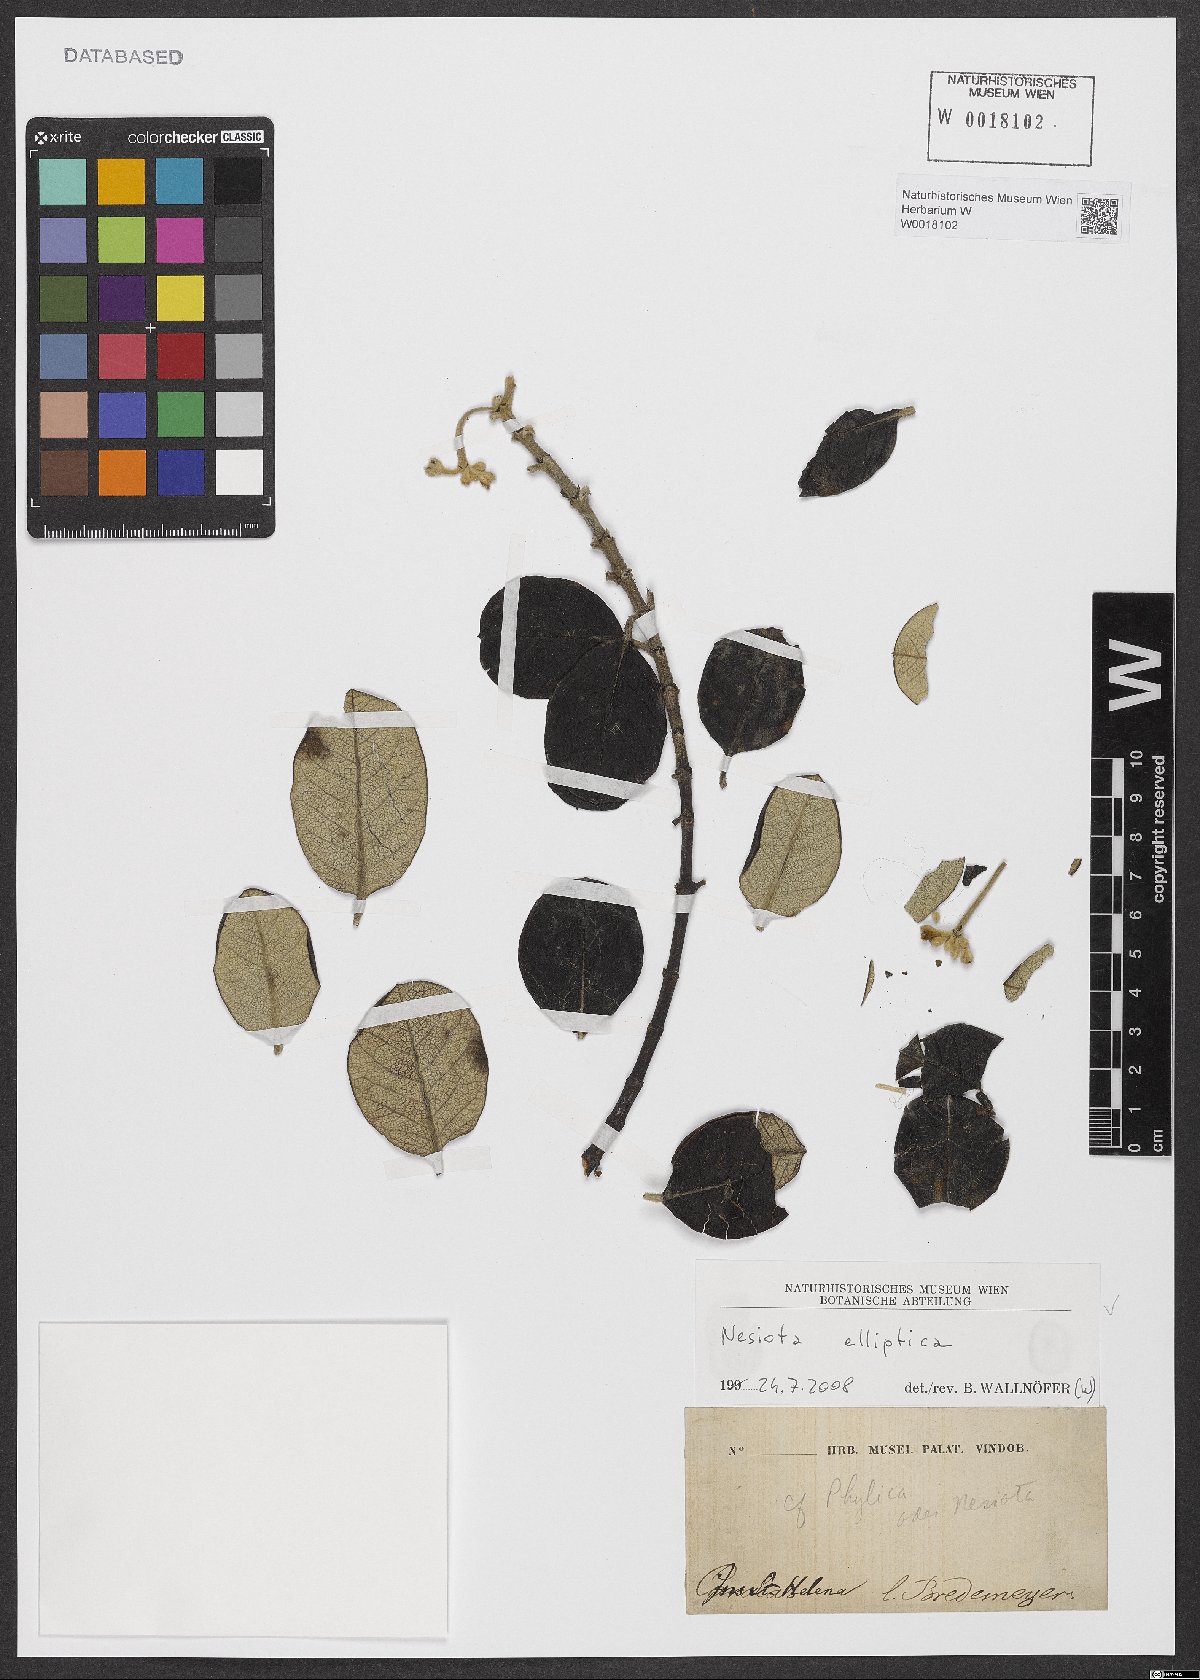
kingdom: Plantae
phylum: Tracheophyta
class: Magnoliopsida
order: Rosales
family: Rhamnaceae
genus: Nesiota
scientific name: Nesiota elliptica
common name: St helena olive
